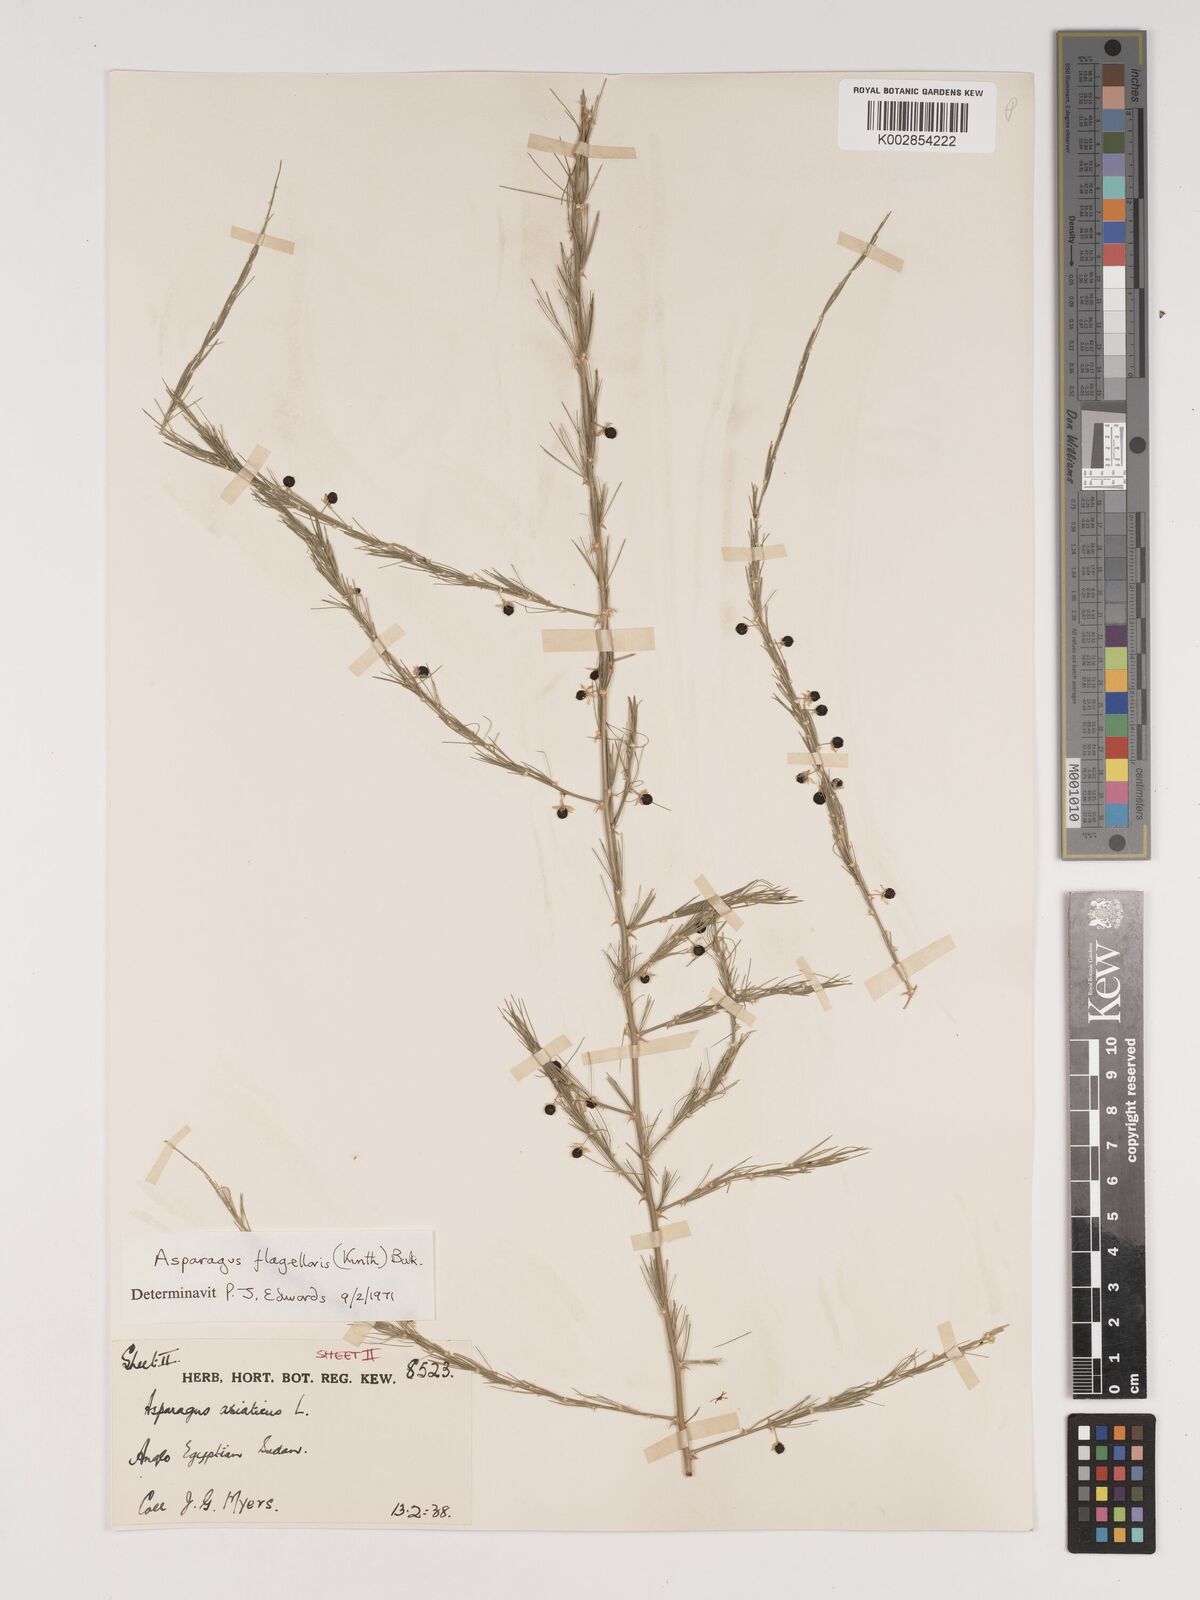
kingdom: Plantae
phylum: Tracheophyta
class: Liliopsida
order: Asparagales
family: Asparagaceae
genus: Asparagus
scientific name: Asparagus flagellaris
